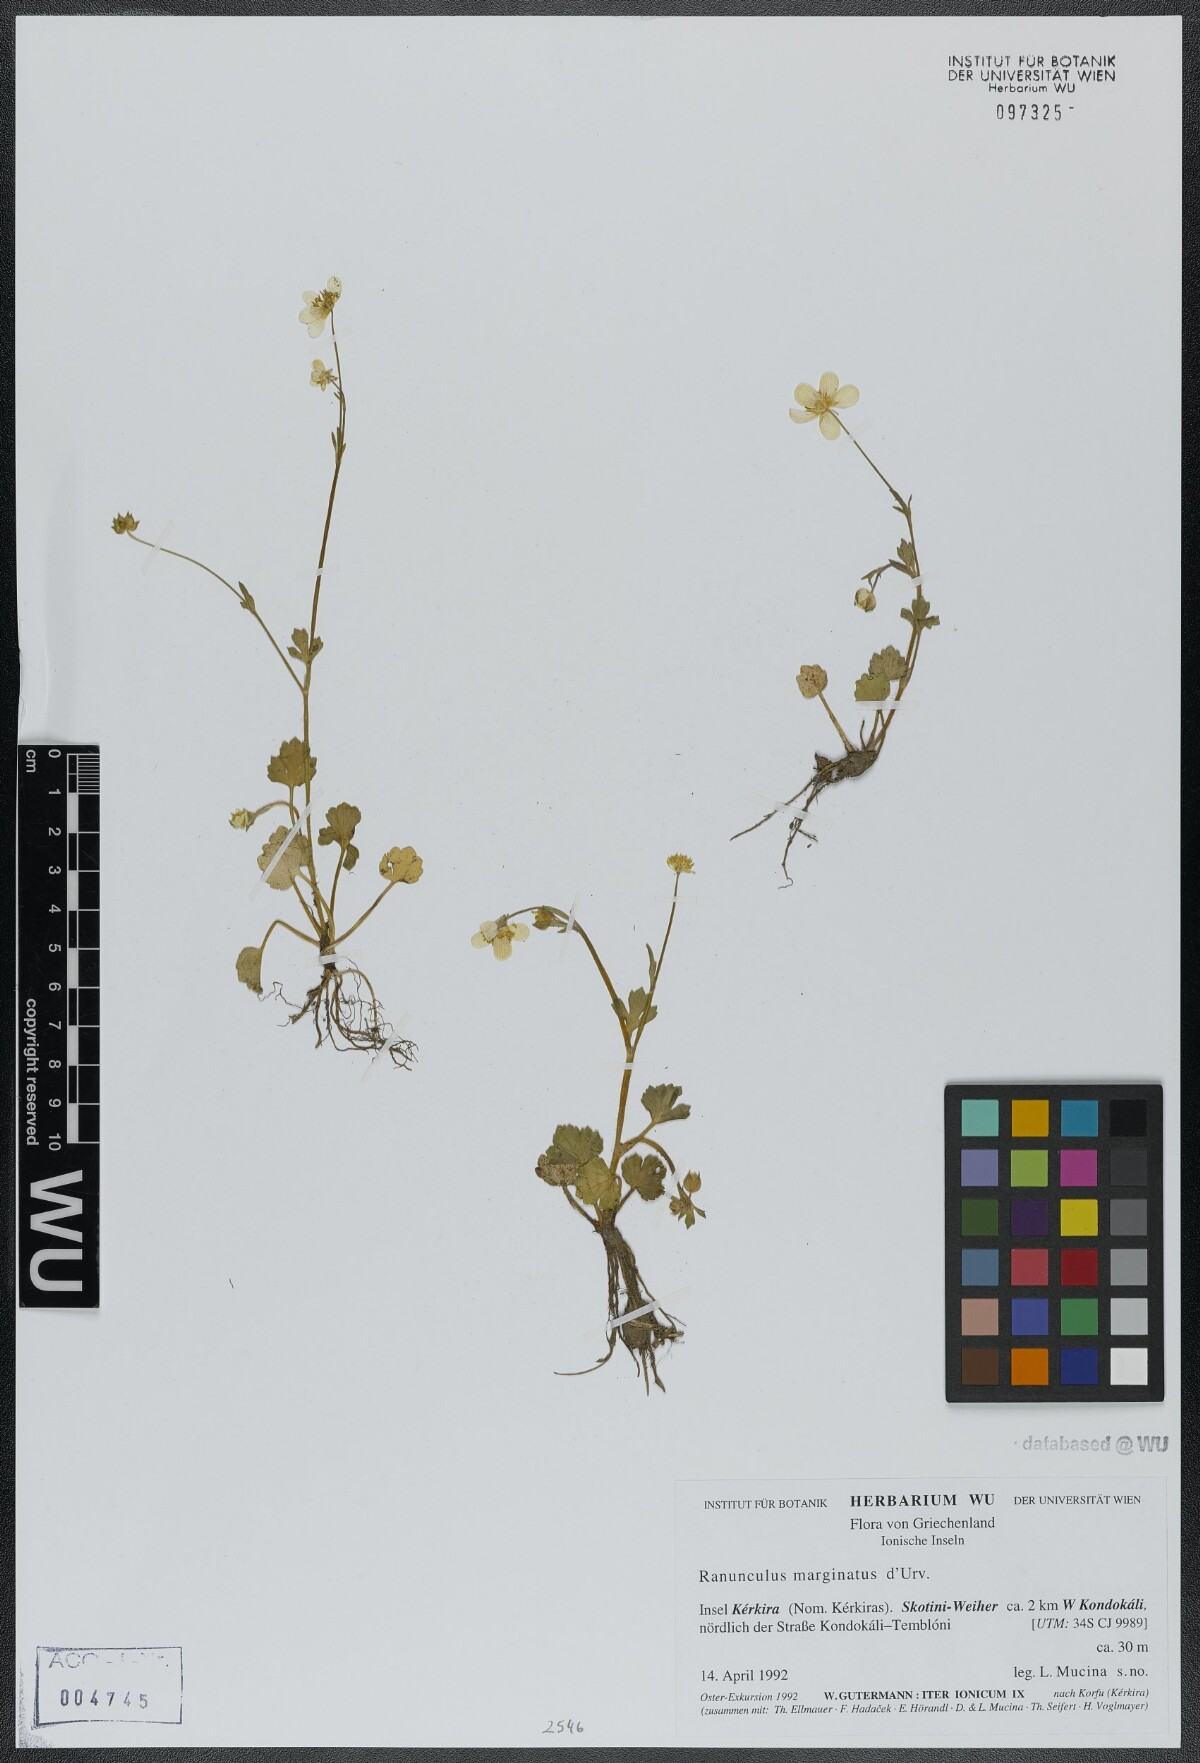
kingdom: Plantae
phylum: Tracheophyta
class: Magnoliopsida
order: Ranunculales
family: Ranunculaceae
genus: Ranunculus
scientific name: Ranunculus marginatus
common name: St. martin's buttercup
